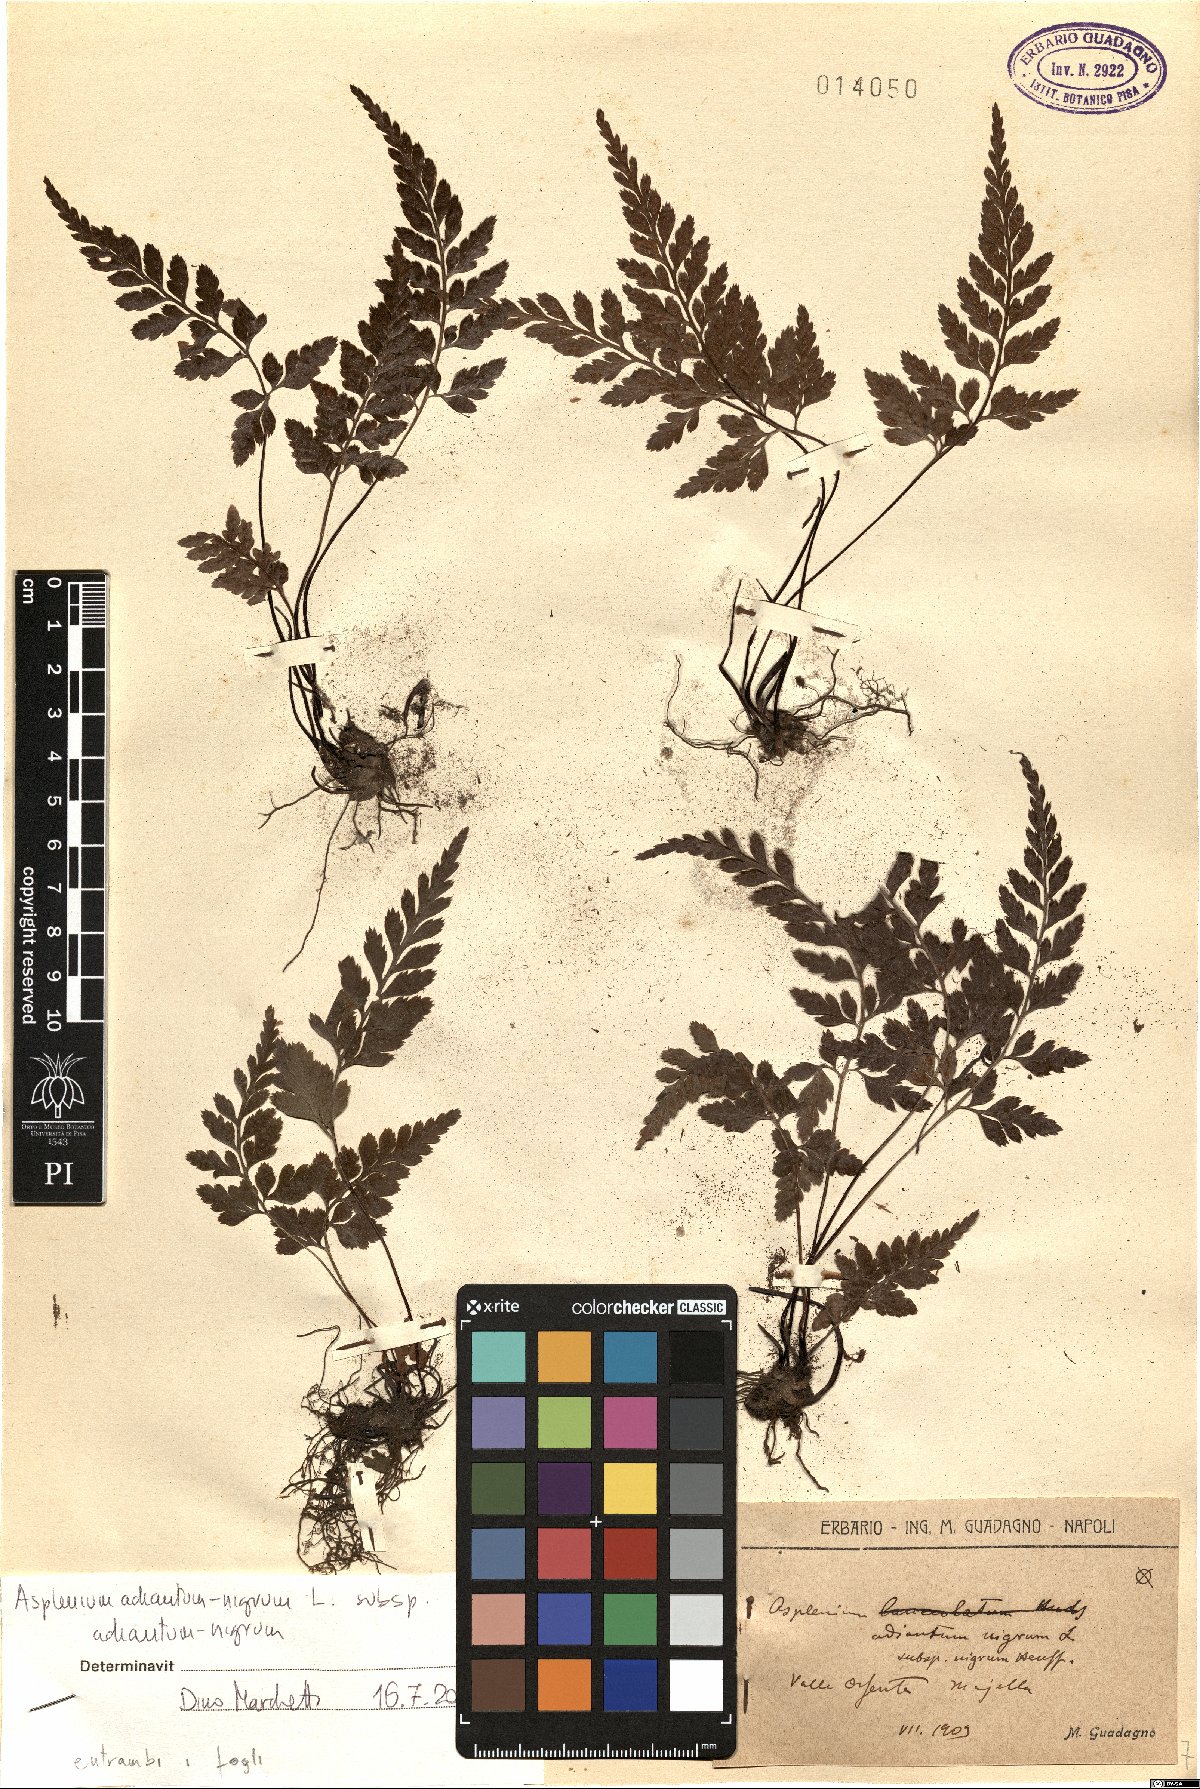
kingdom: Plantae
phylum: Tracheophyta
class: Polypodiopsida
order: Polypodiales
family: Aspleniaceae
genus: Asplenium
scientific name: Asplenium adiantum-nigrum
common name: Black spleenwort
